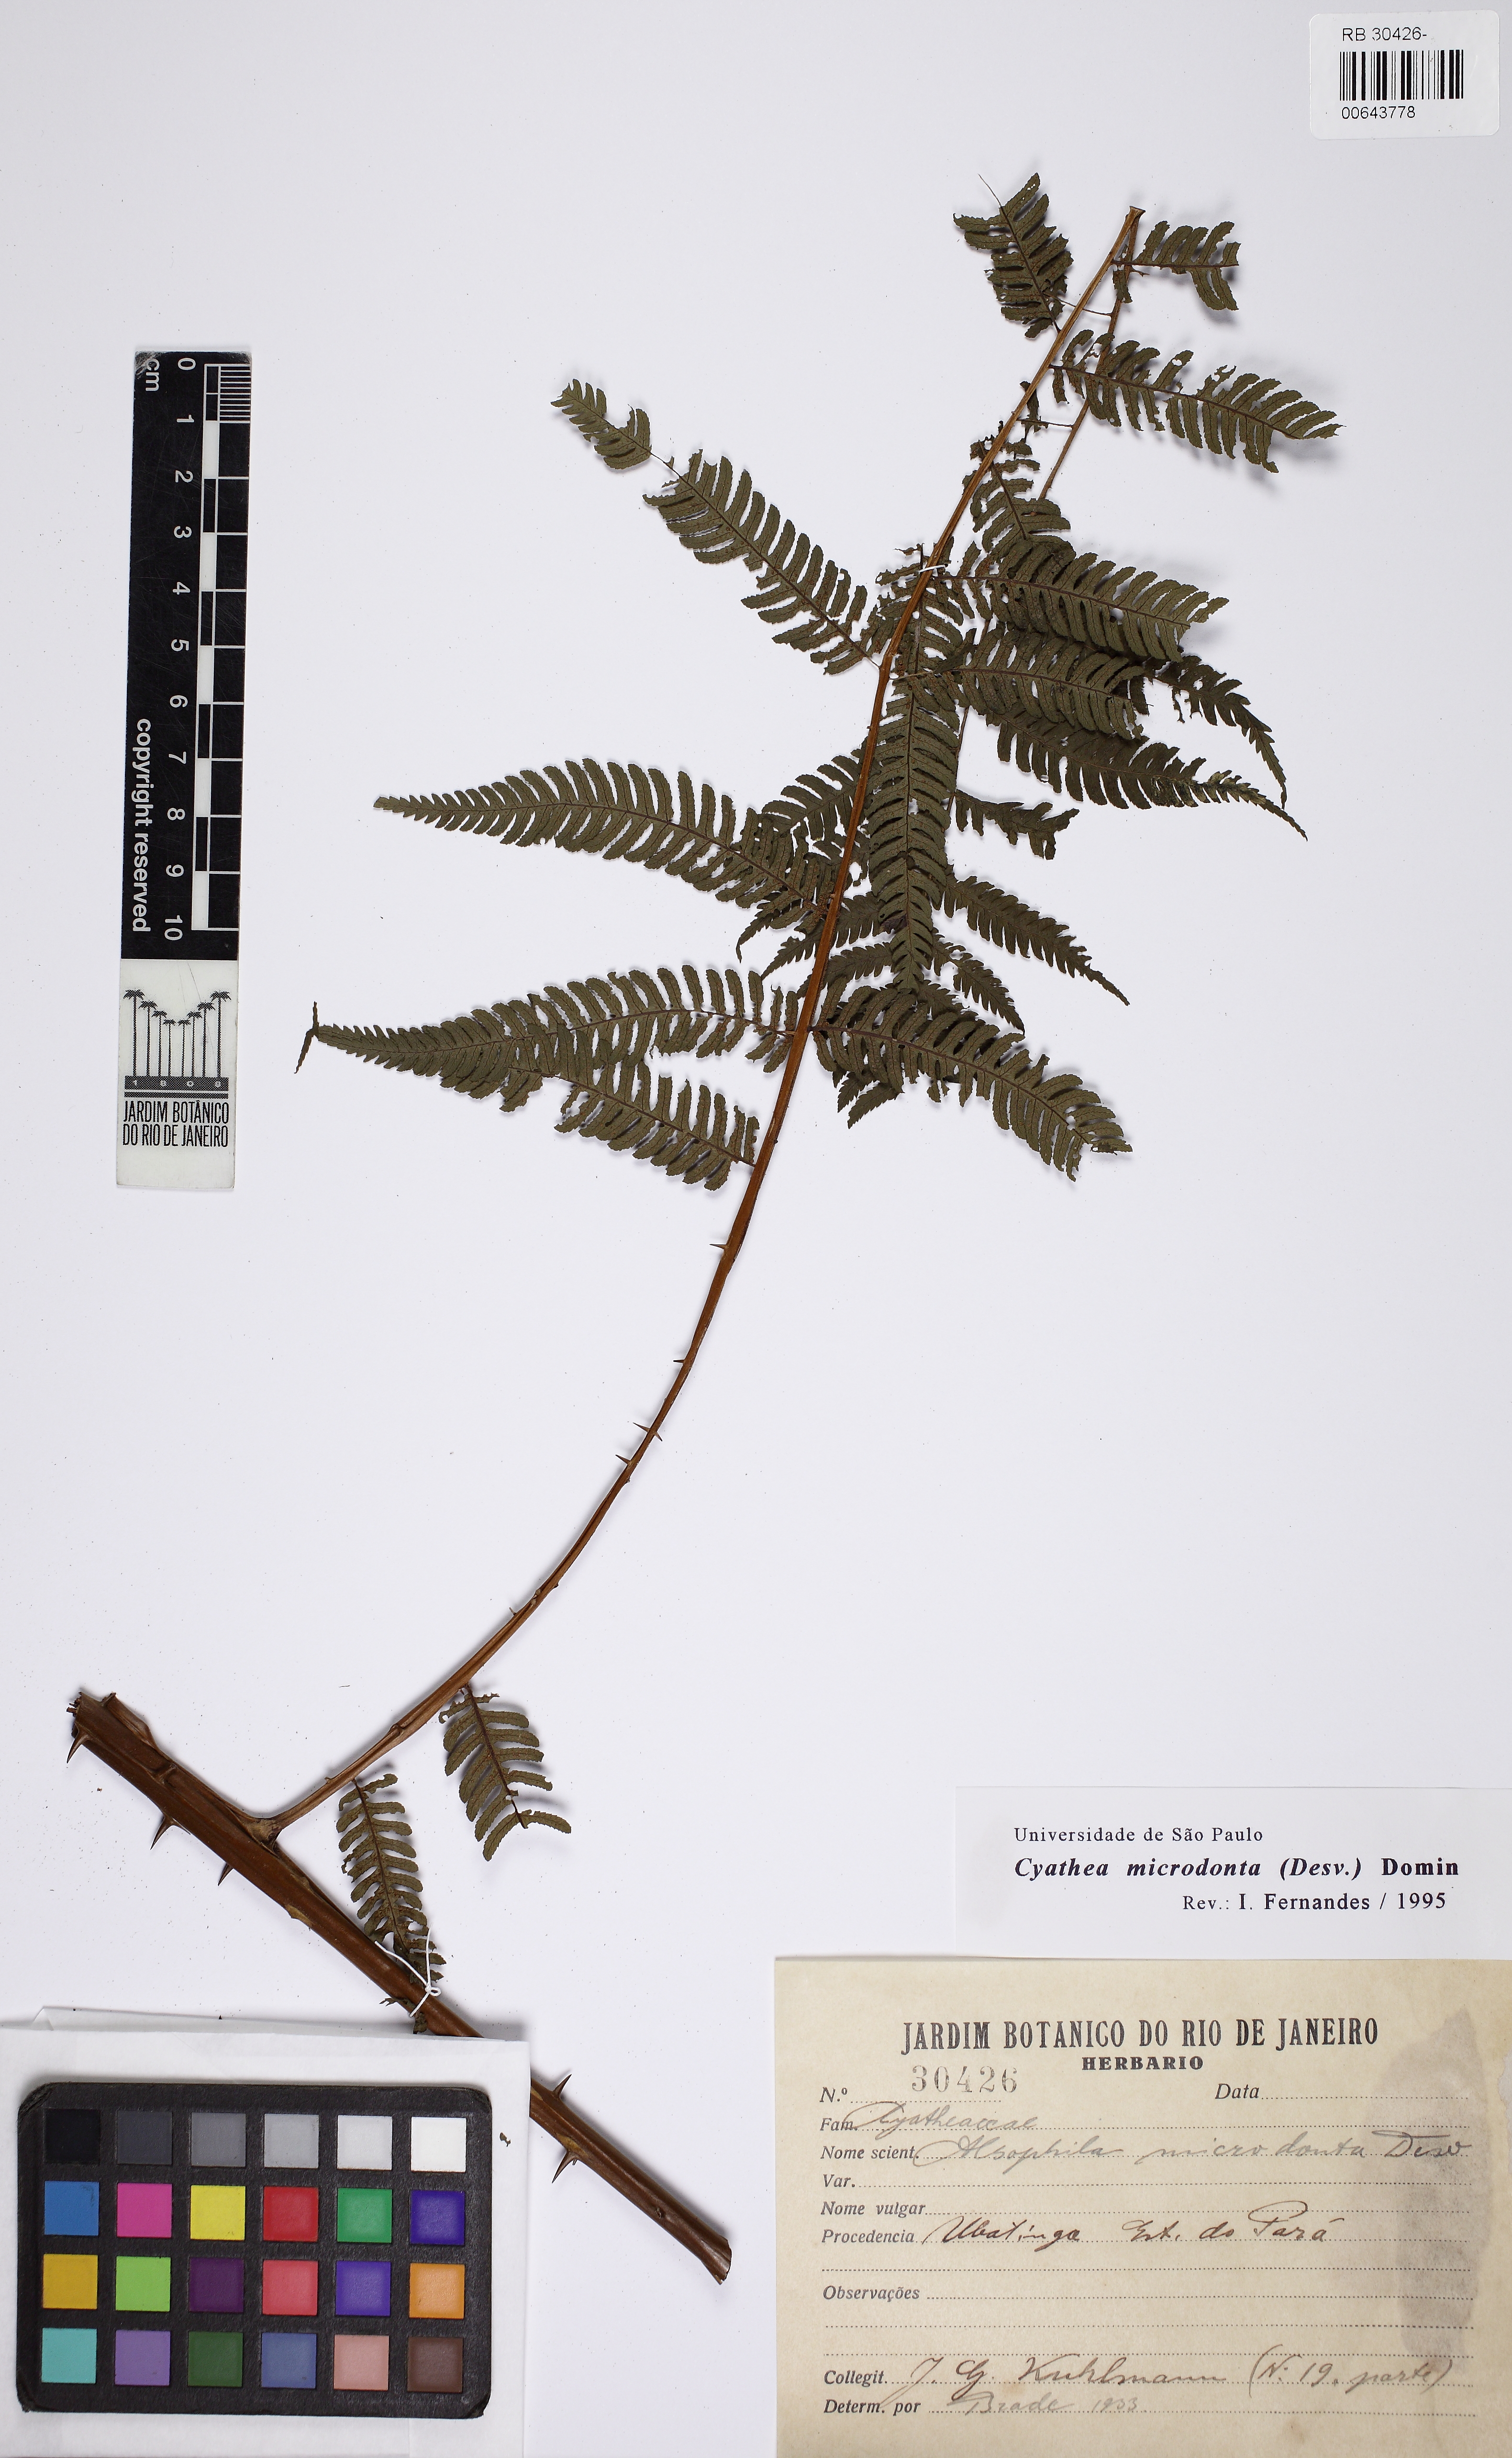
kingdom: Plantae
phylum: Tracheophyta
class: Polypodiopsida
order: Cyatheales
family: Cyatheaceae
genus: Cyathea
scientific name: Cyathea microdonta
